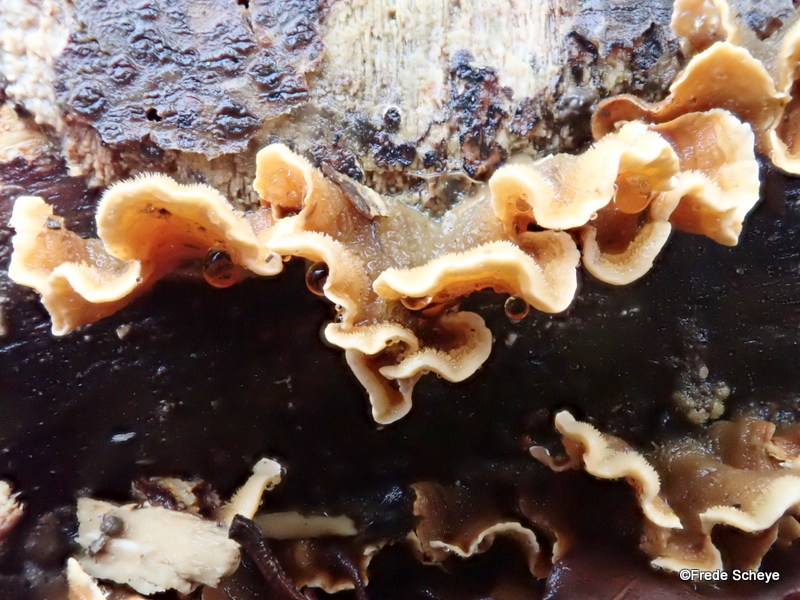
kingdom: Fungi
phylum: Basidiomycota
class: Agaricomycetes
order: Russulales
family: Stereaceae
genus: Stereum
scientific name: Stereum hirsutum
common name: håret lædersvamp
